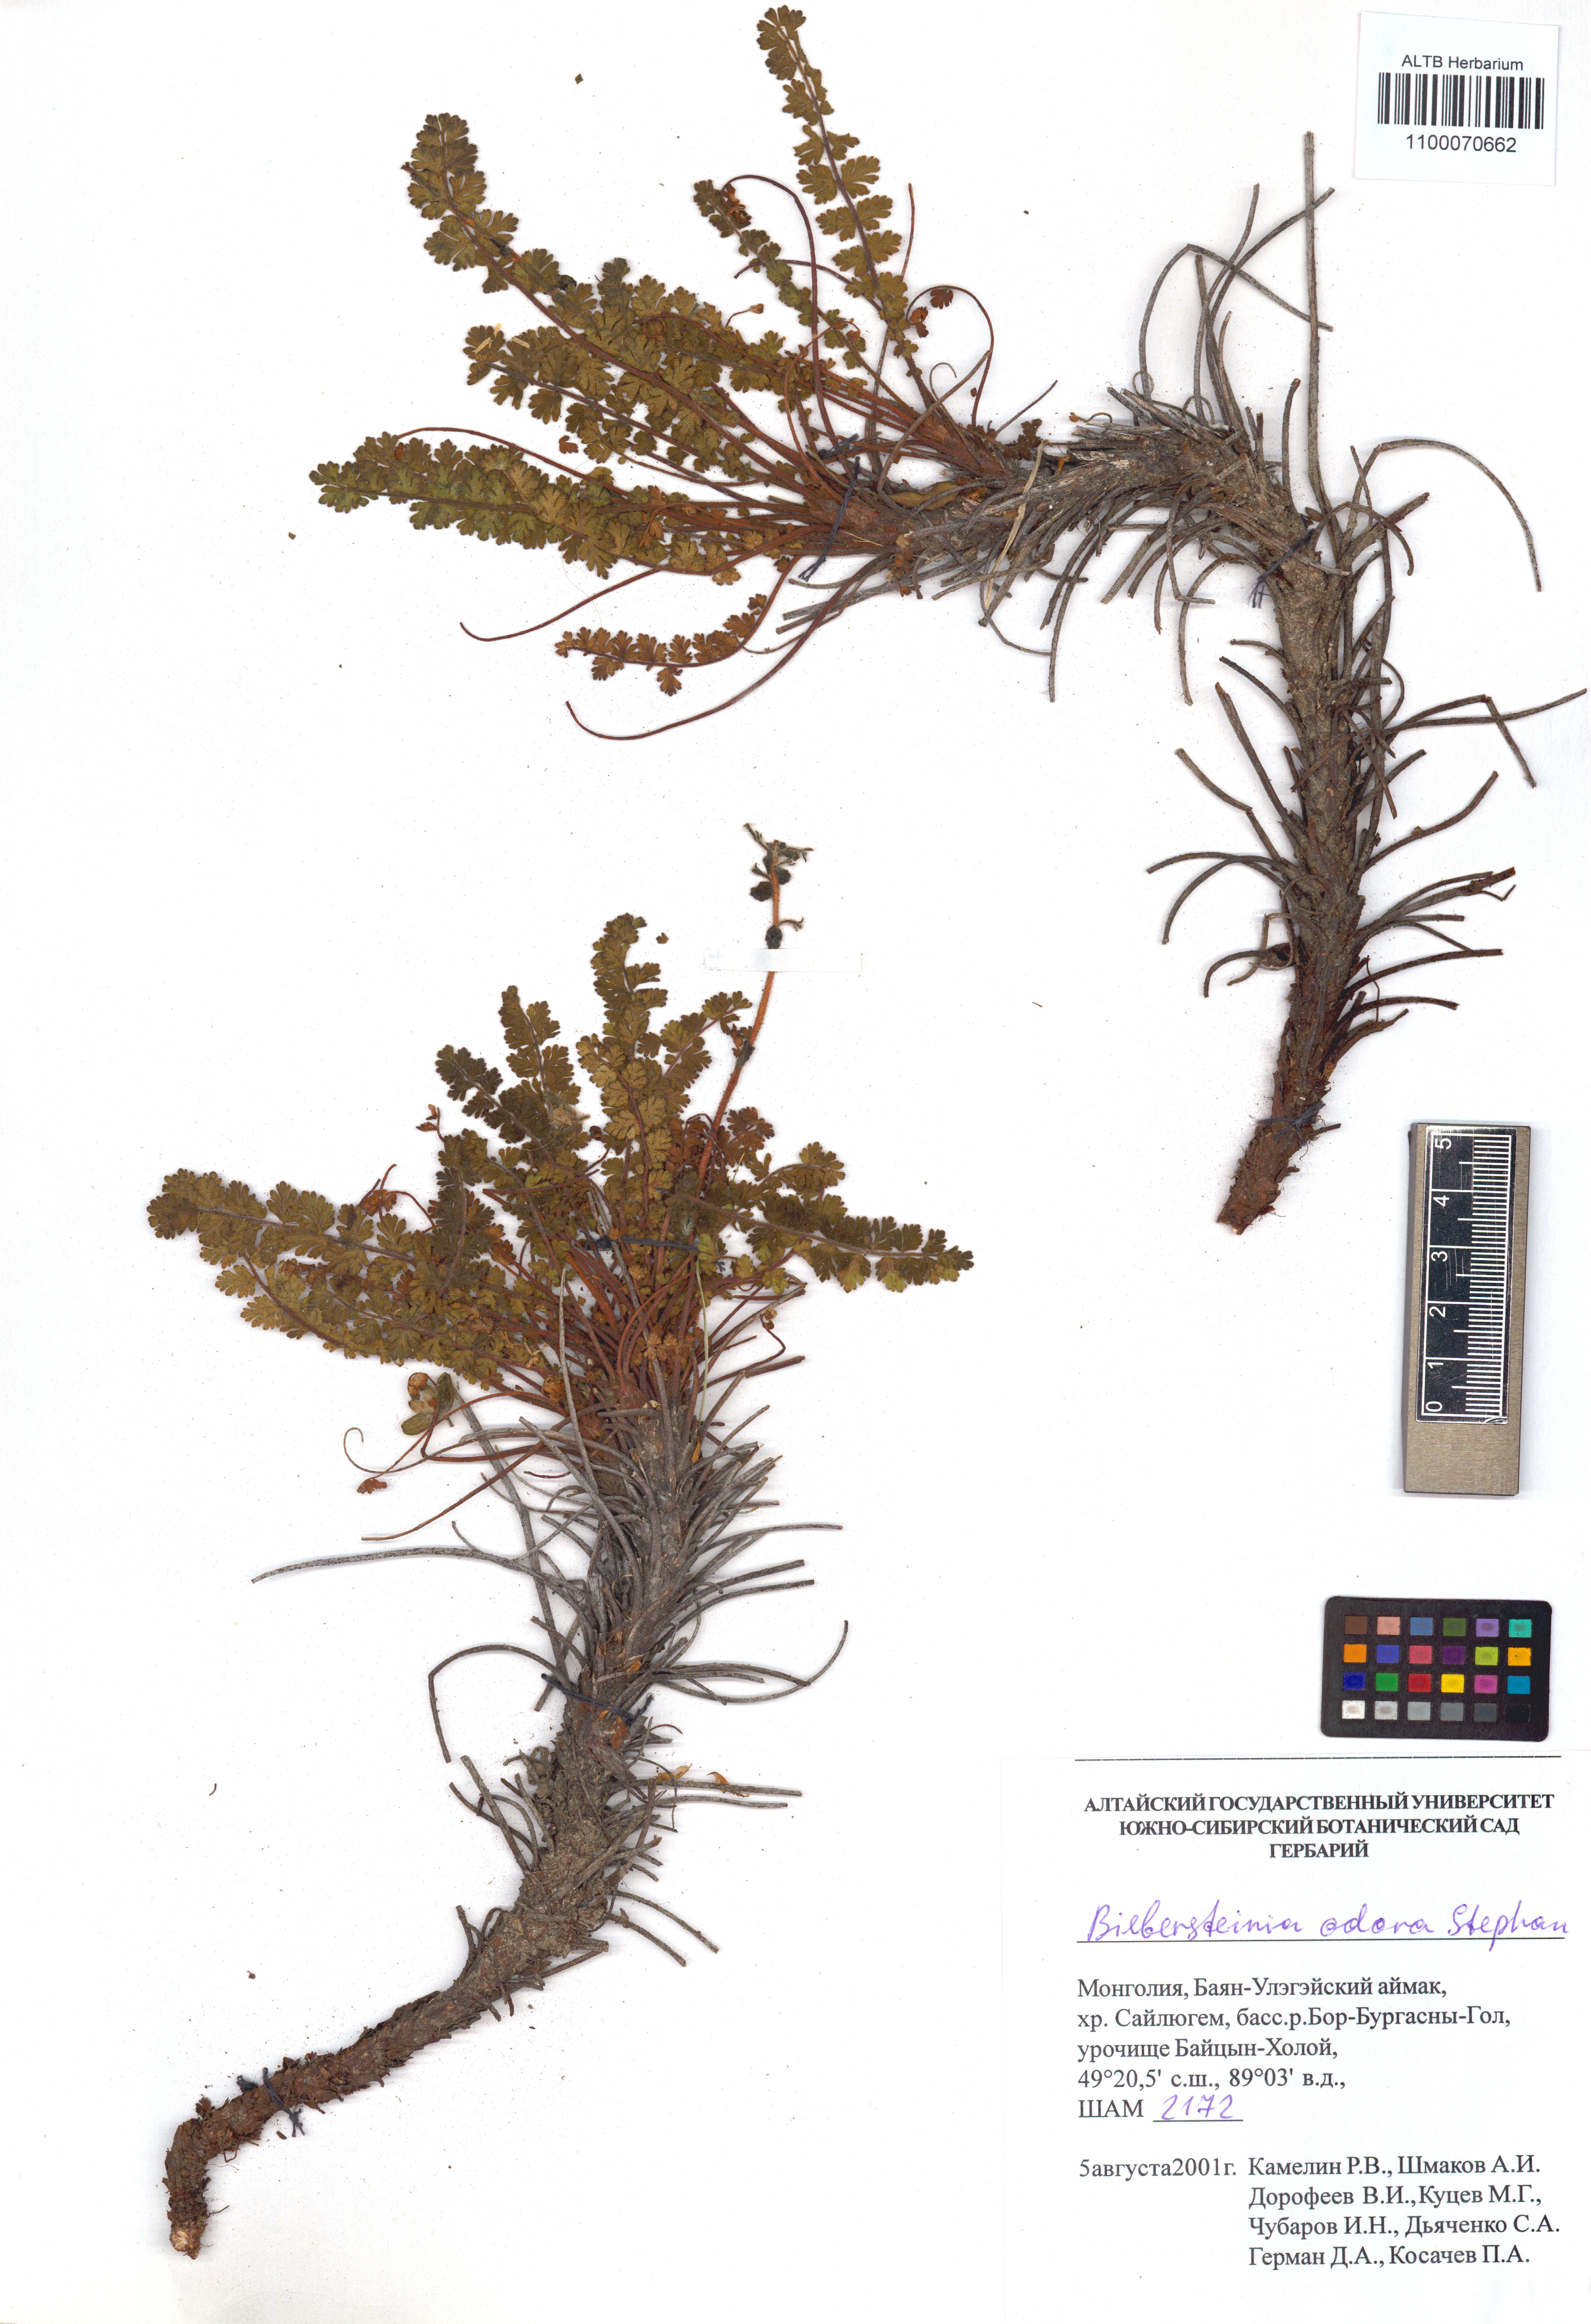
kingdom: Plantae
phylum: Tracheophyta
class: Magnoliopsida
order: Sapindales
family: Biebersteiniaceae
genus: Biebersteinia
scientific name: Biebersteinia odora
